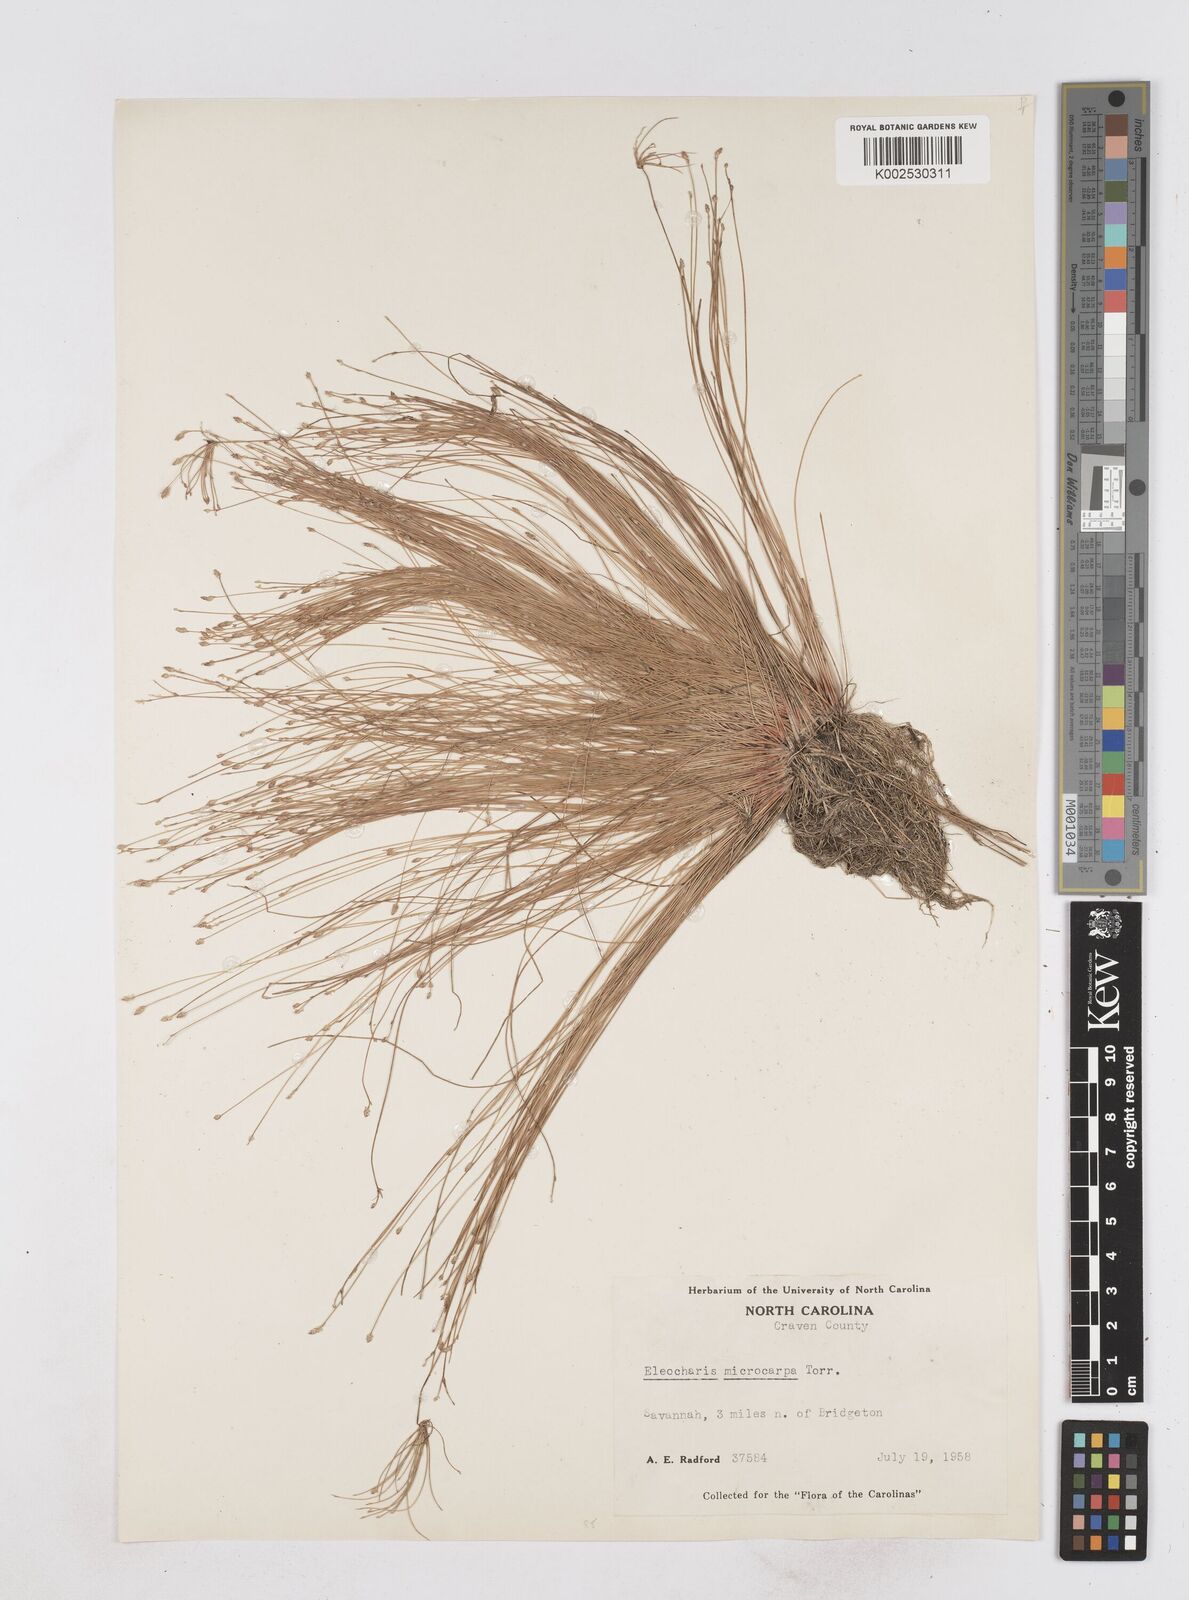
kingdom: Plantae
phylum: Tracheophyta
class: Liliopsida
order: Poales
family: Cyperaceae
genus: Eleocharis
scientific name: Eleocharis microcarpa
